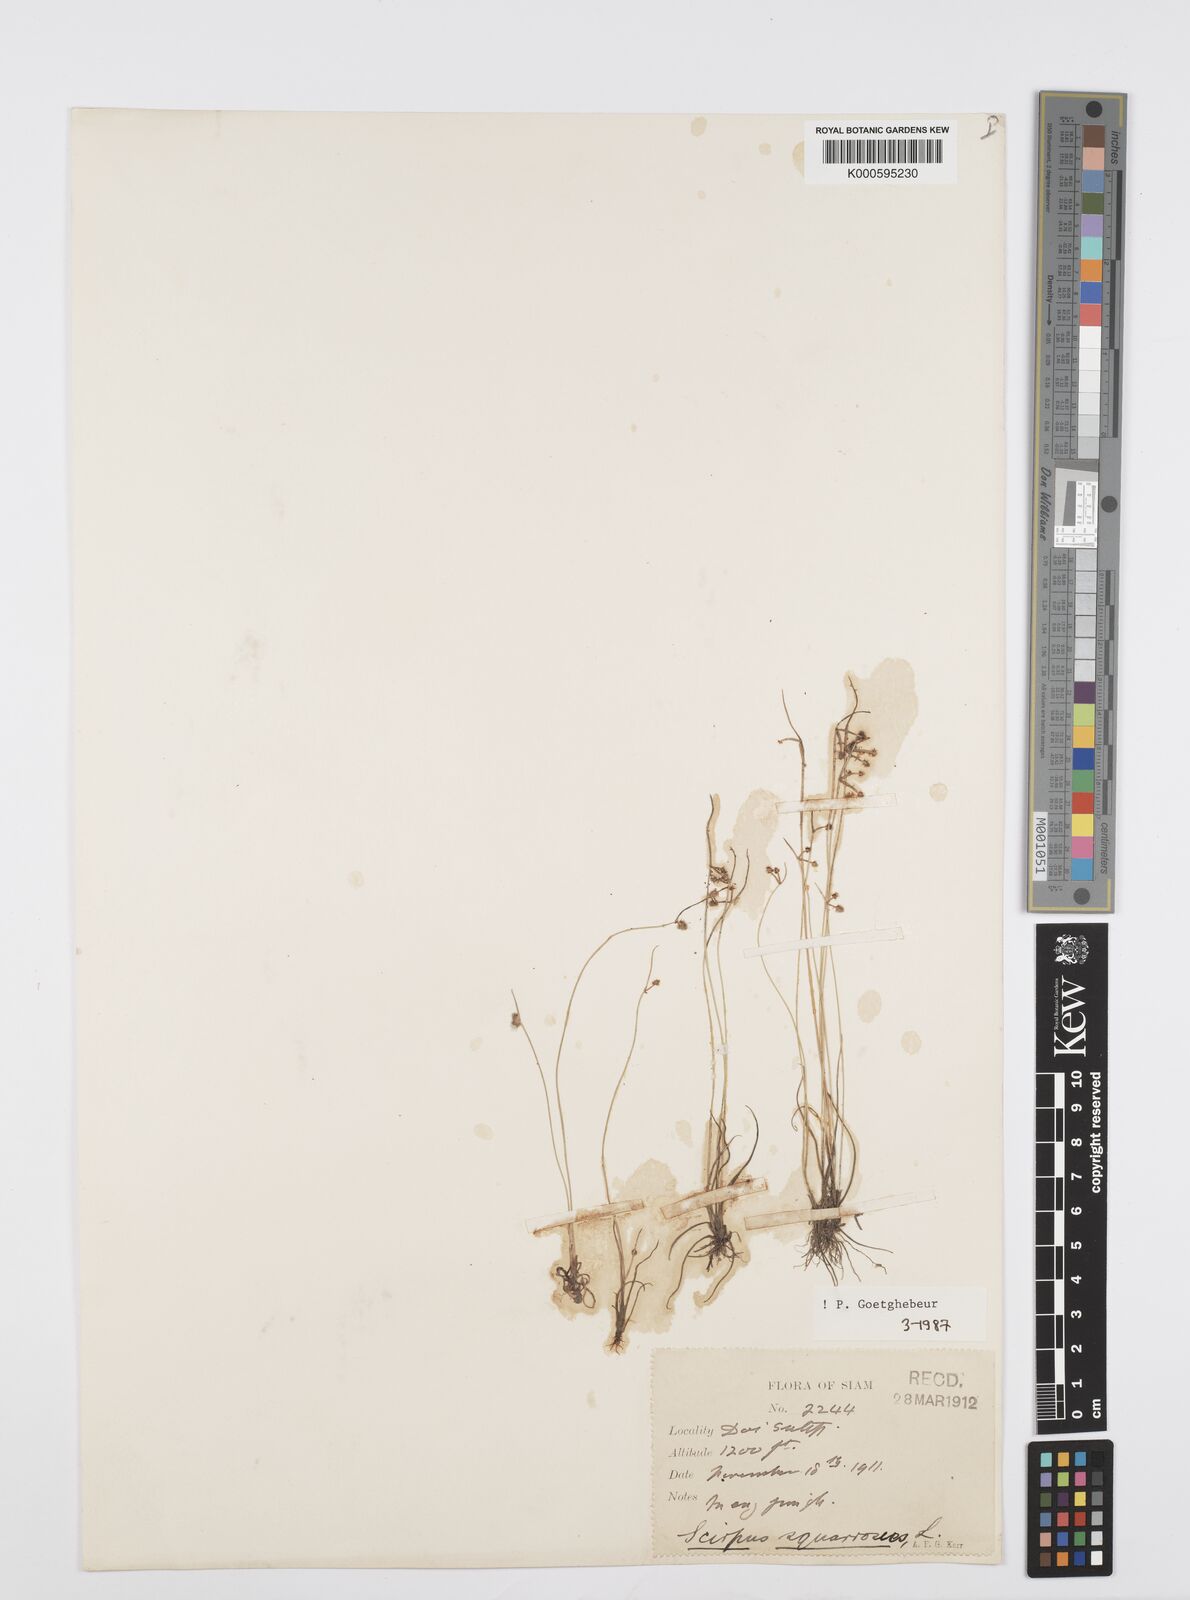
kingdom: Plantae
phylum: Tracheophyta
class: Liliopsida
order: Poales
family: Cyperaceae
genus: Cyperus
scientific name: Cyperus neochinensis
